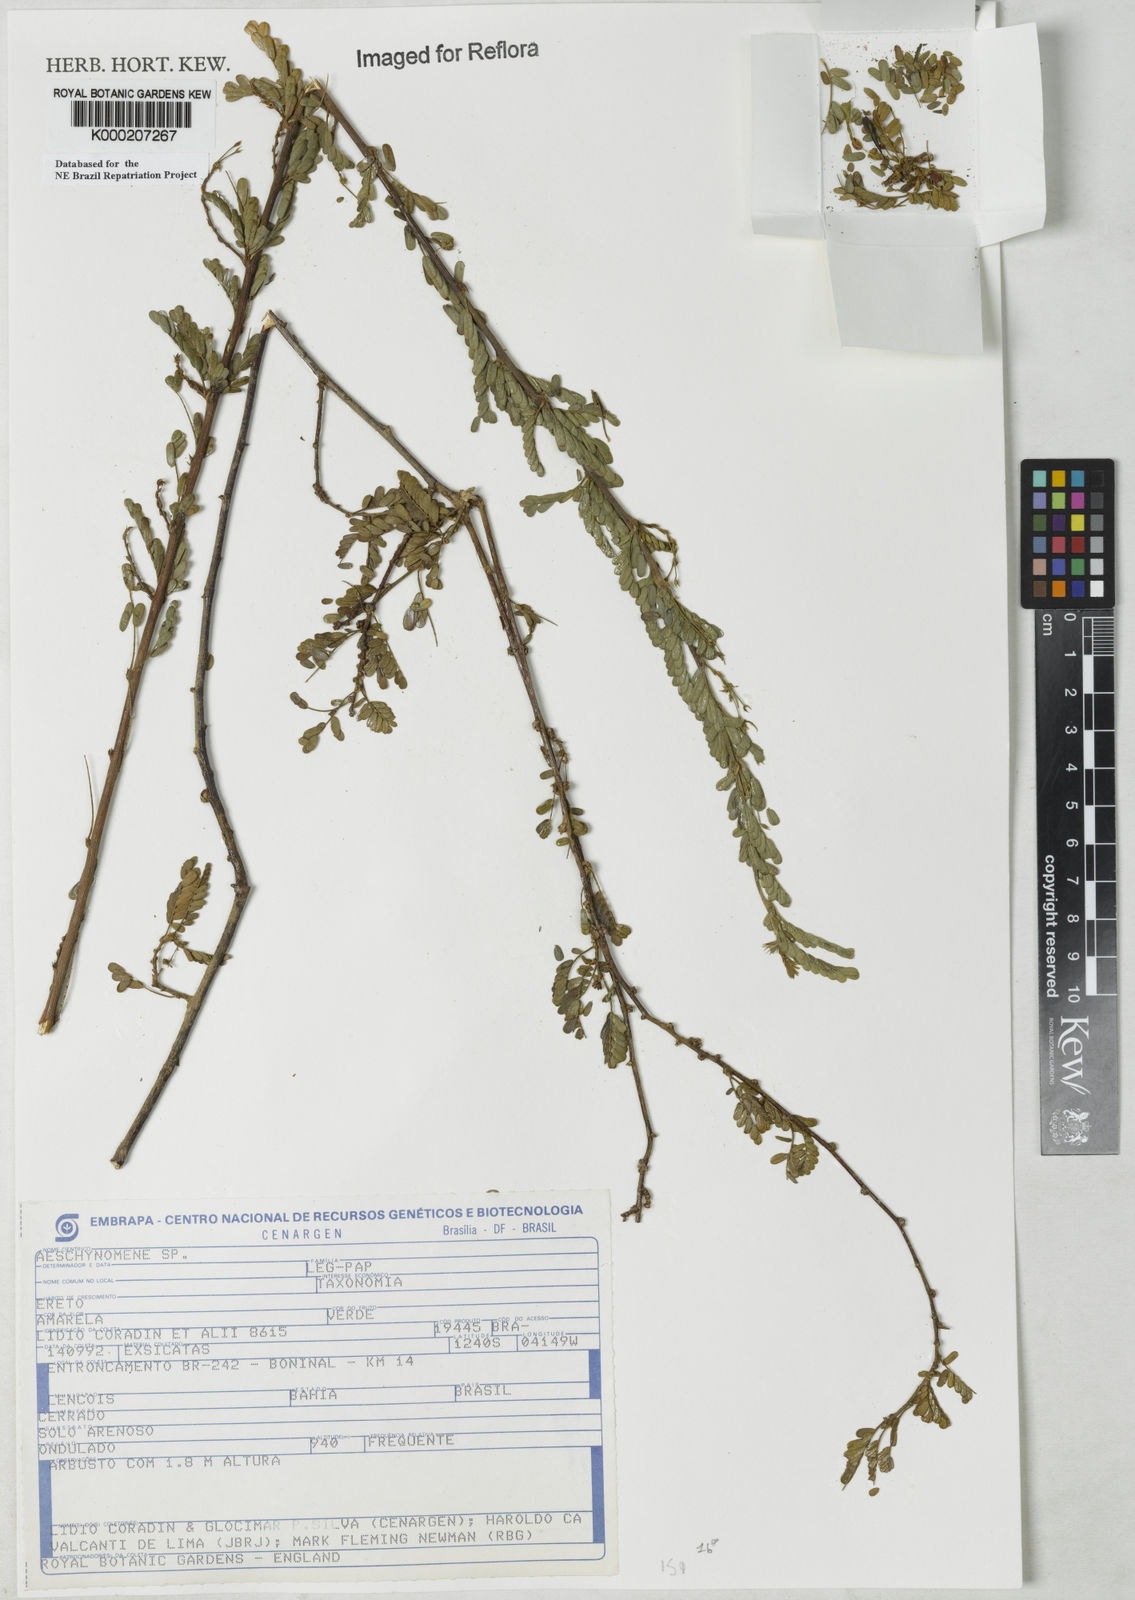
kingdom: Plantae
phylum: Tracheophyta
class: Magnoliopsida
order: Fabales
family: Fabaceae
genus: Aeschynomene
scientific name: Aeschynomene
